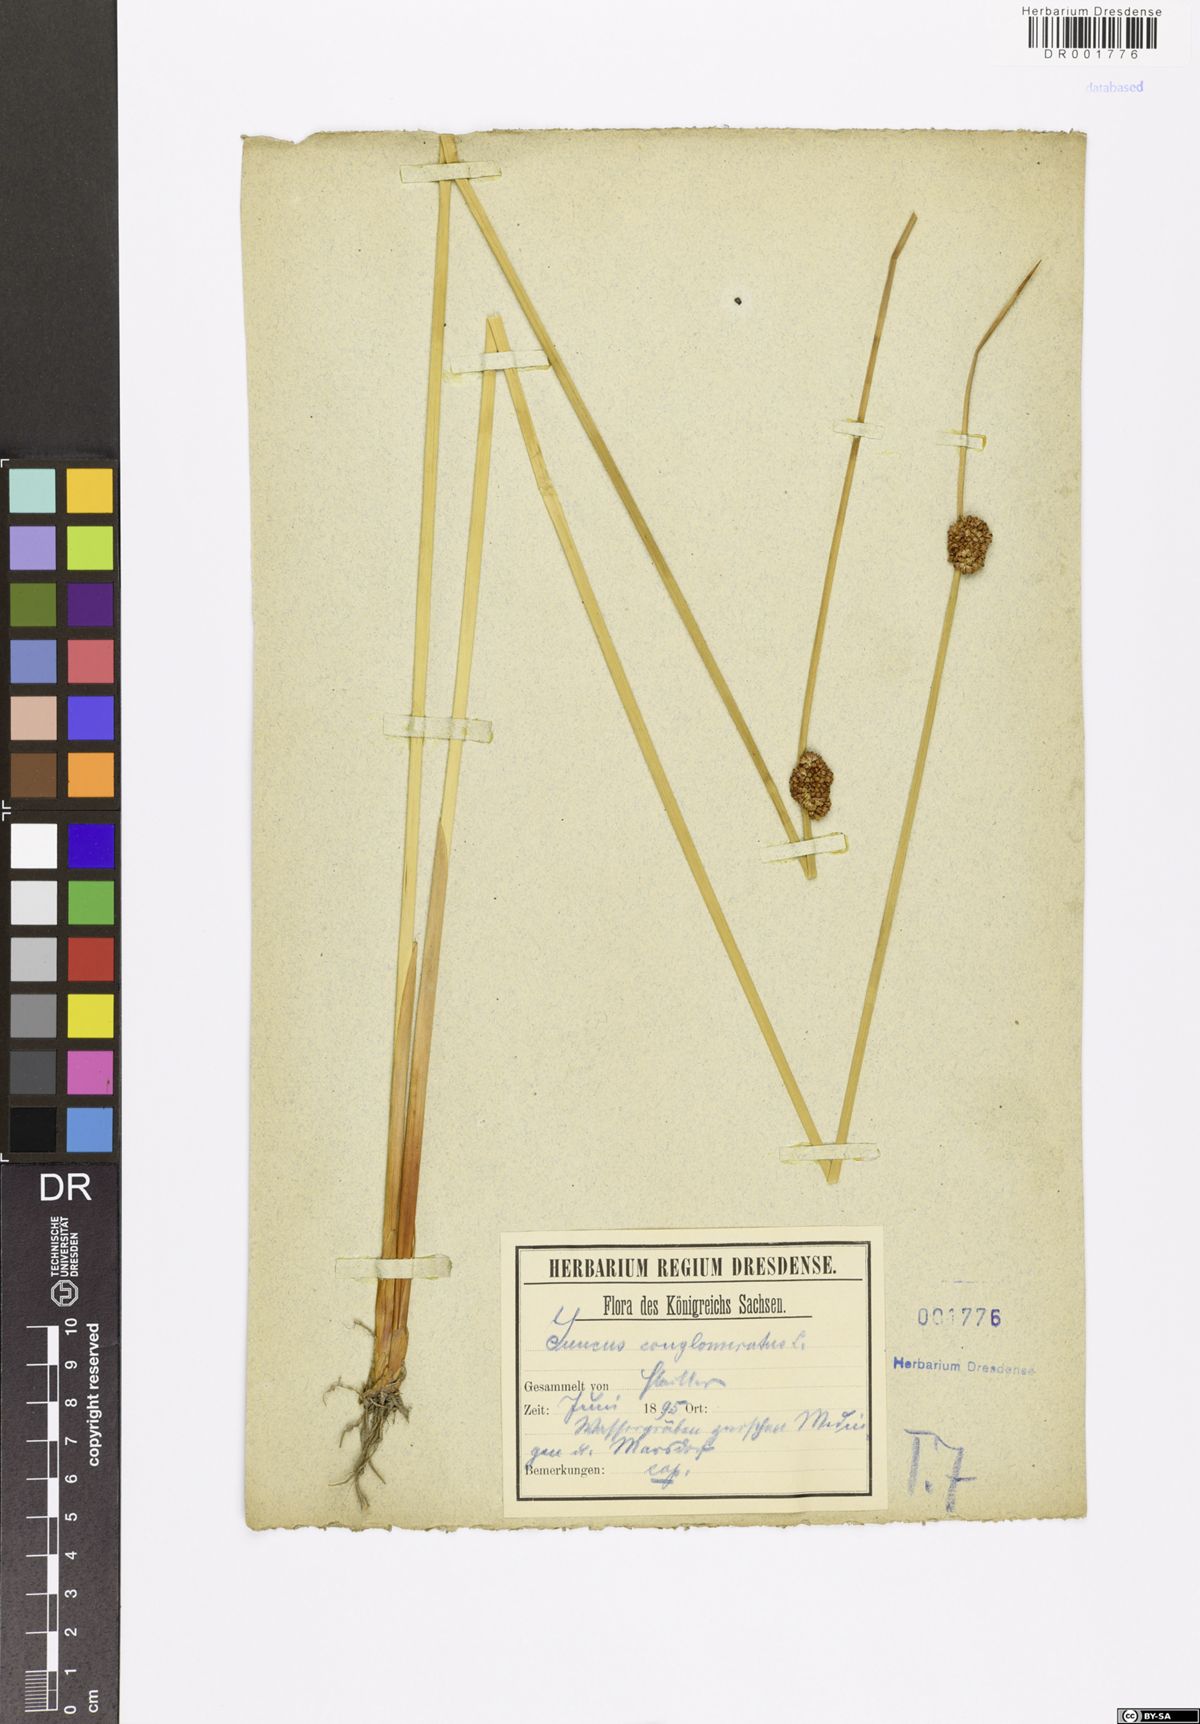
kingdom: Plantae
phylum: Tracheophyta
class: Liliopsida
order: Poales
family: Juncaceae
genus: Juncus
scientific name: Juncus conglomeratus
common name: Compact rush
